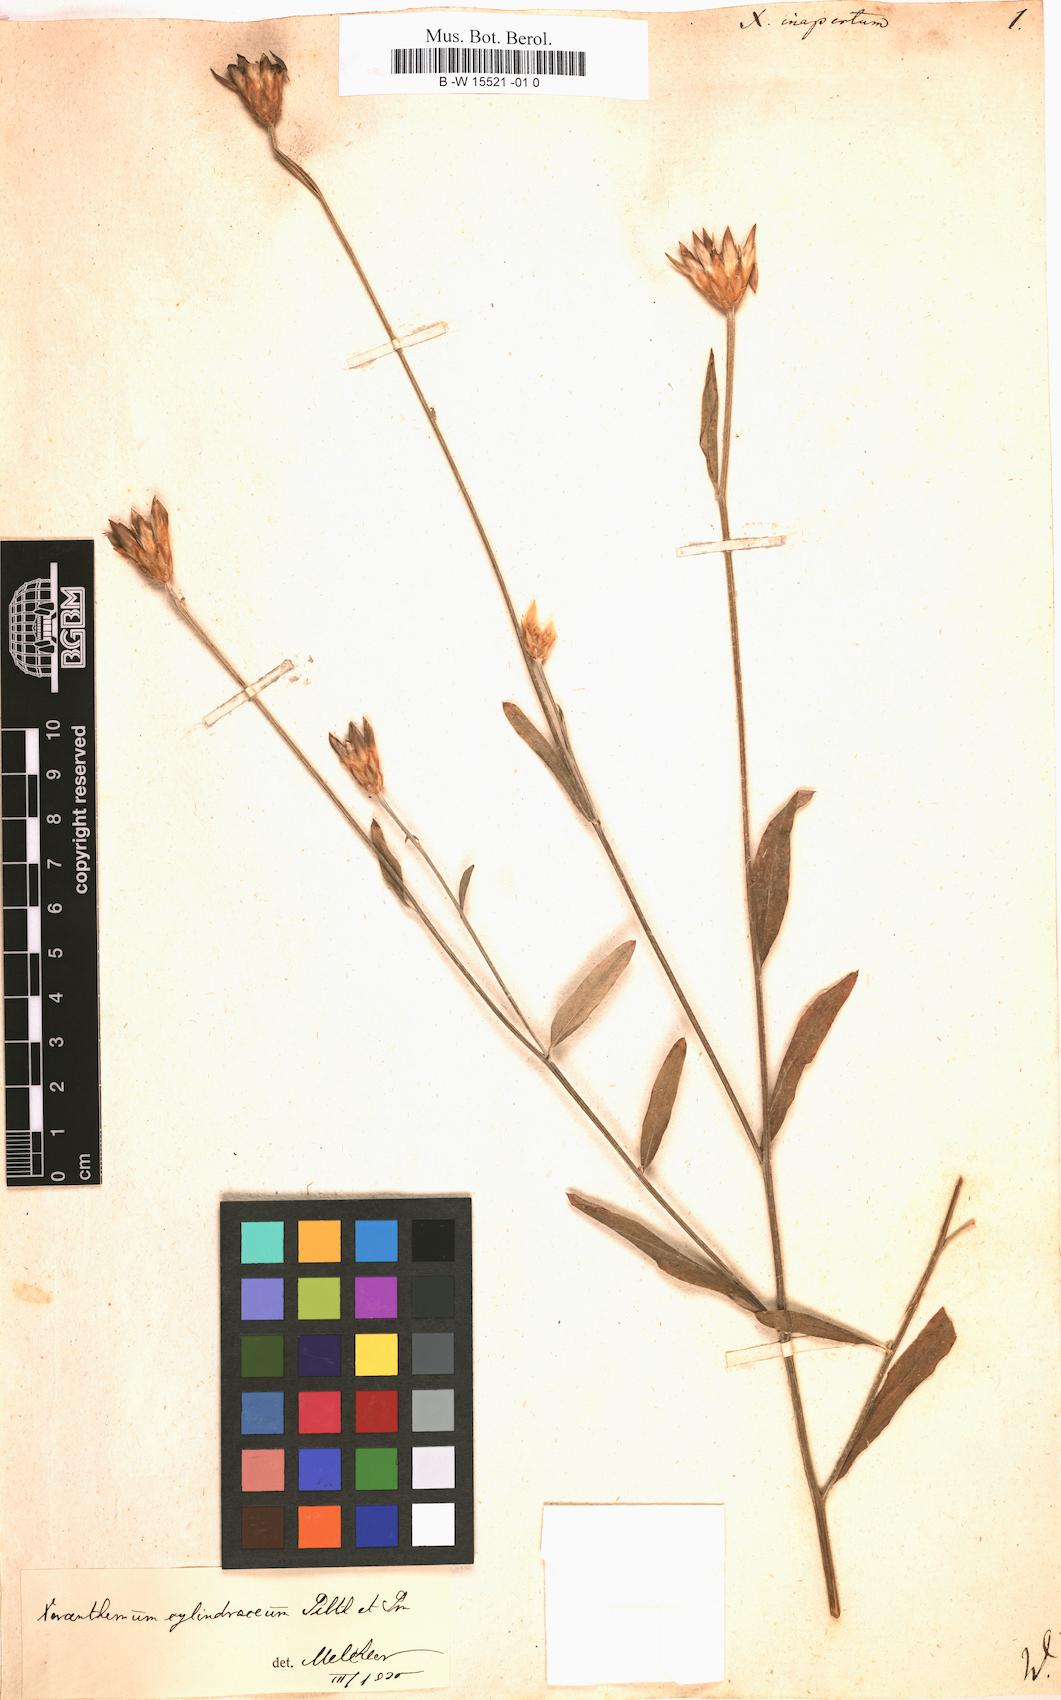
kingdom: Plantae
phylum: Tracheophyta
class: Magnoliopsida
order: Asterales
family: Asteraceae
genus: Xeranthemum
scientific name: Xeranthemum inapertum
